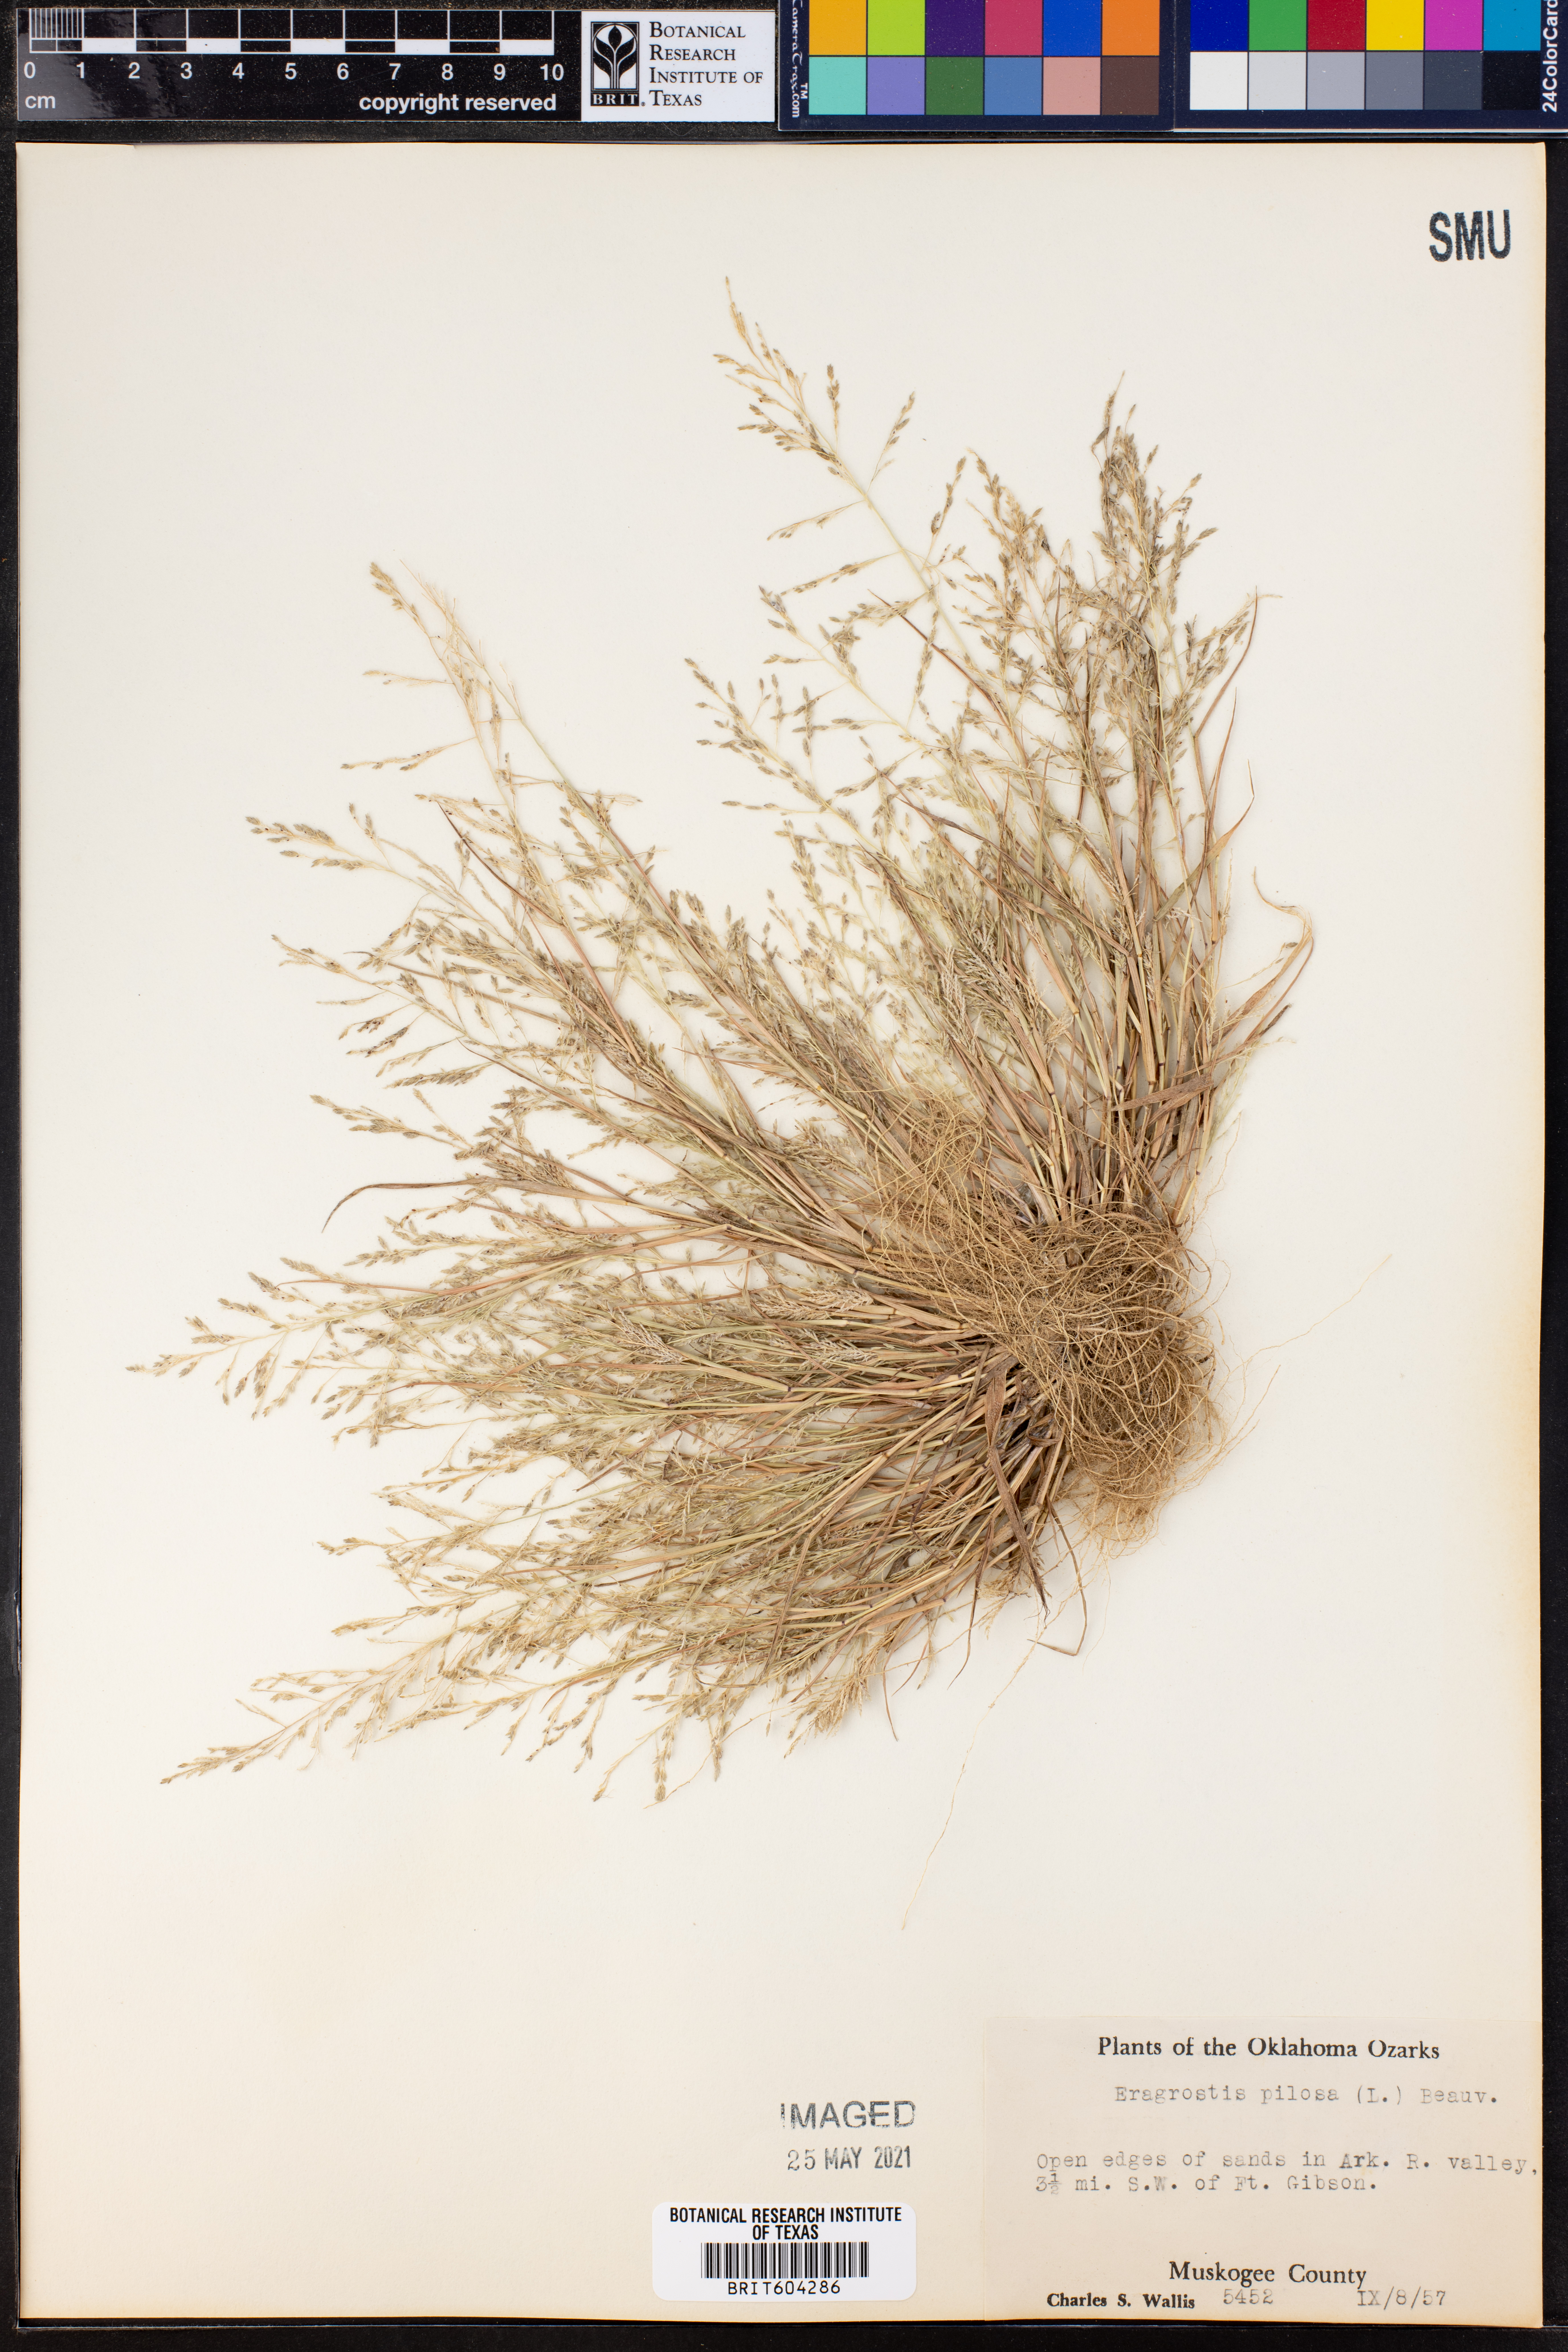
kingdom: Plantae
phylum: Tracheophyta
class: Liliopsida
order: Poales
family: Poaceae
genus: Eragrostis
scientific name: Eragrostis pilosa
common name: Indian lovegrass
